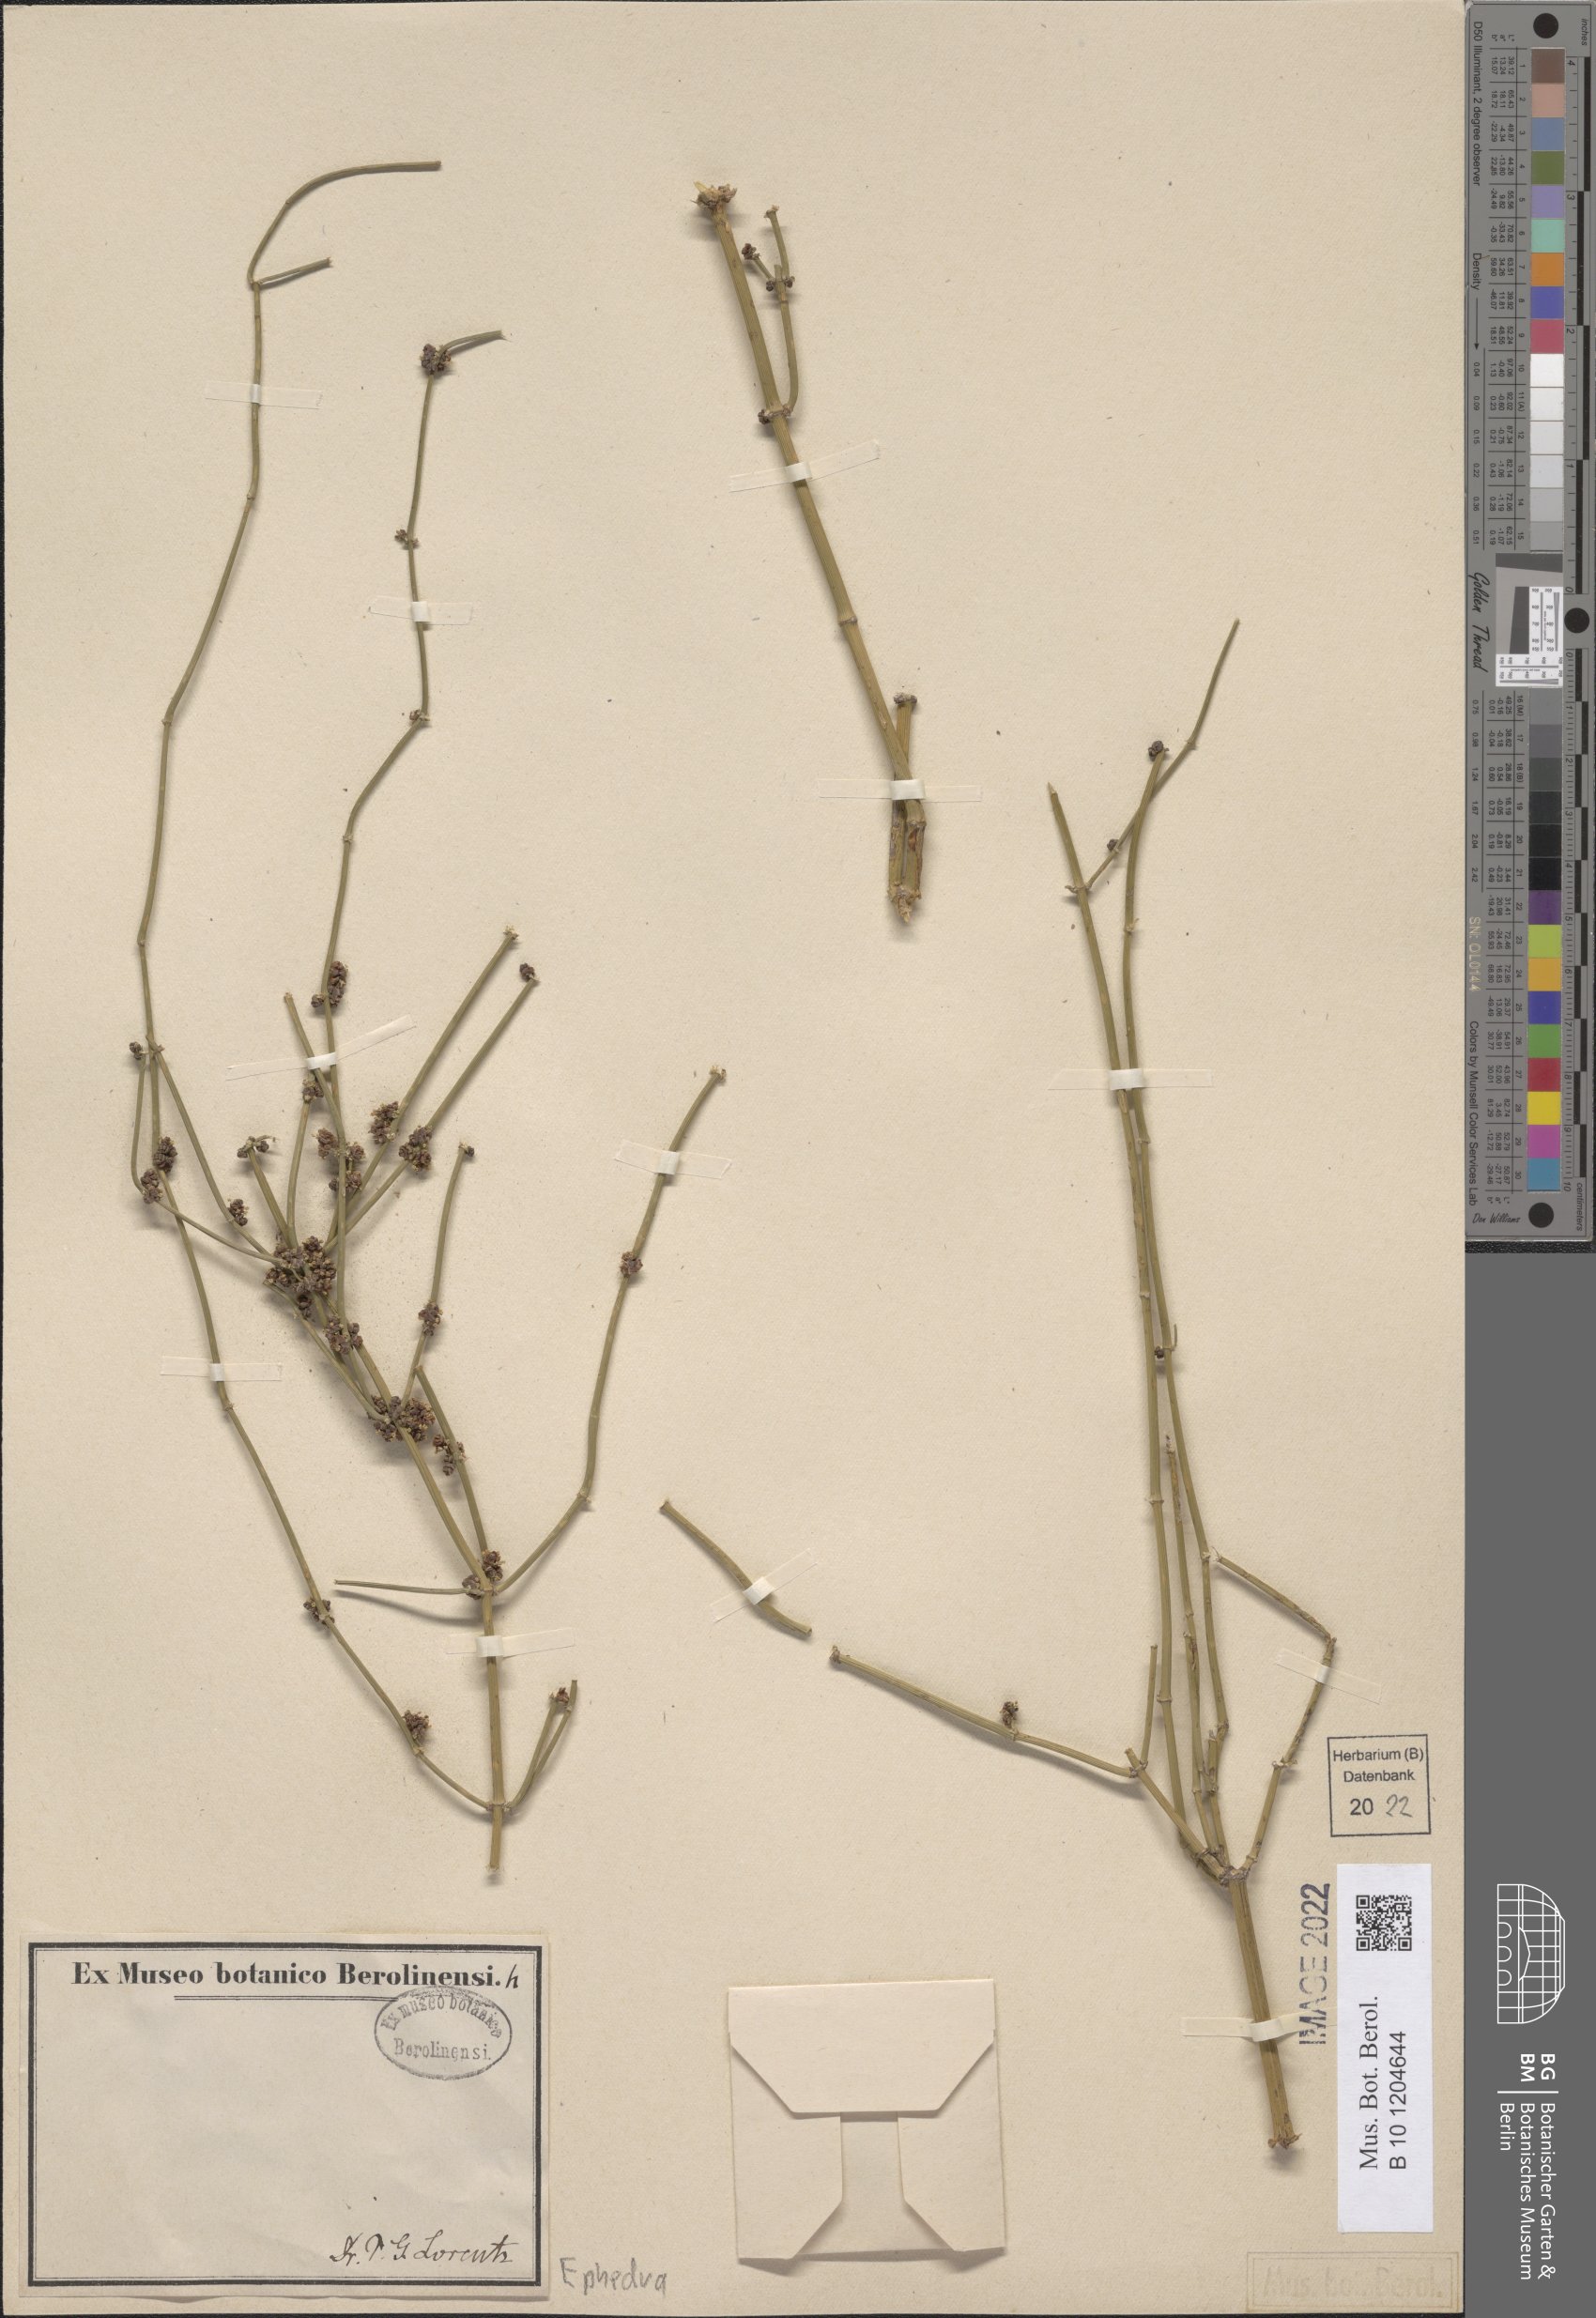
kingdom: Plantae
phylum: Tracheophyta
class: Gnetopsida
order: Ephedrales
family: Ephedraceae
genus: Ephedra
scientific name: Ephedra
